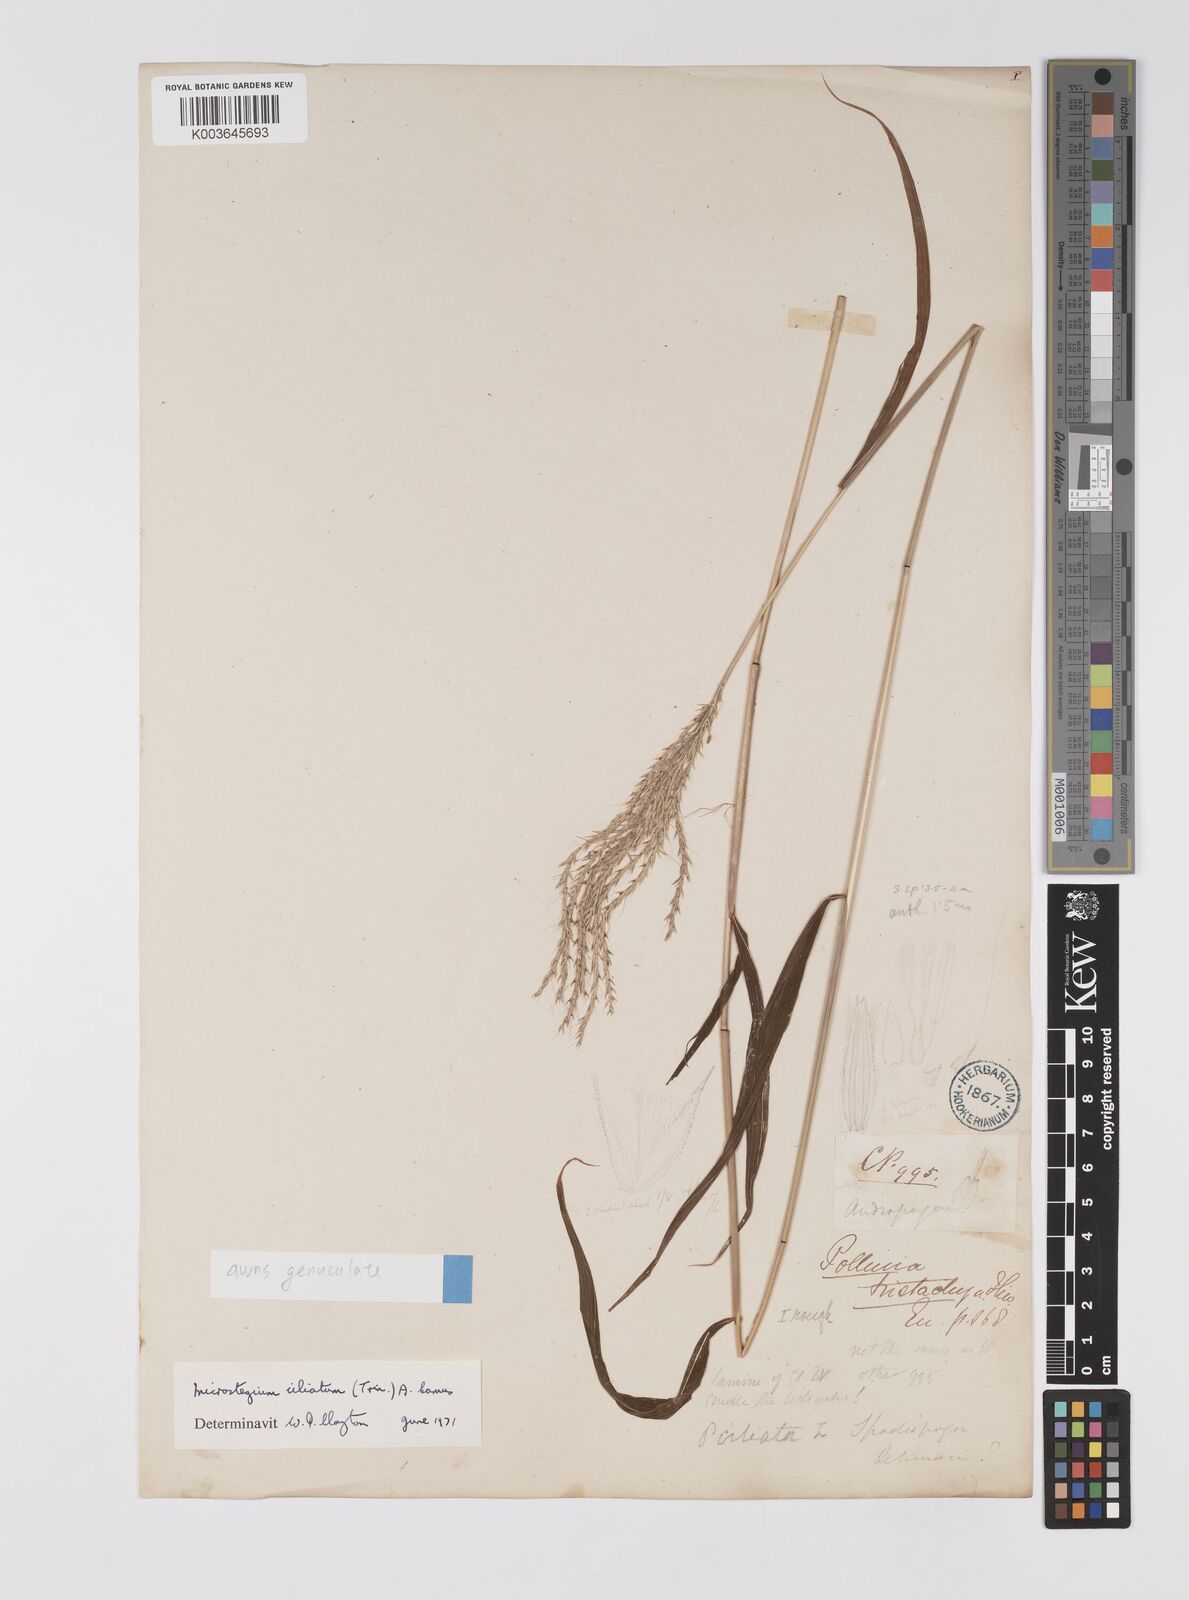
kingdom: Plantae
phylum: Tracheophyta
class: Liliopsida
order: Poales
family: Poaceae
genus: Microstegium
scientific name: Microstegium fasciculatum
